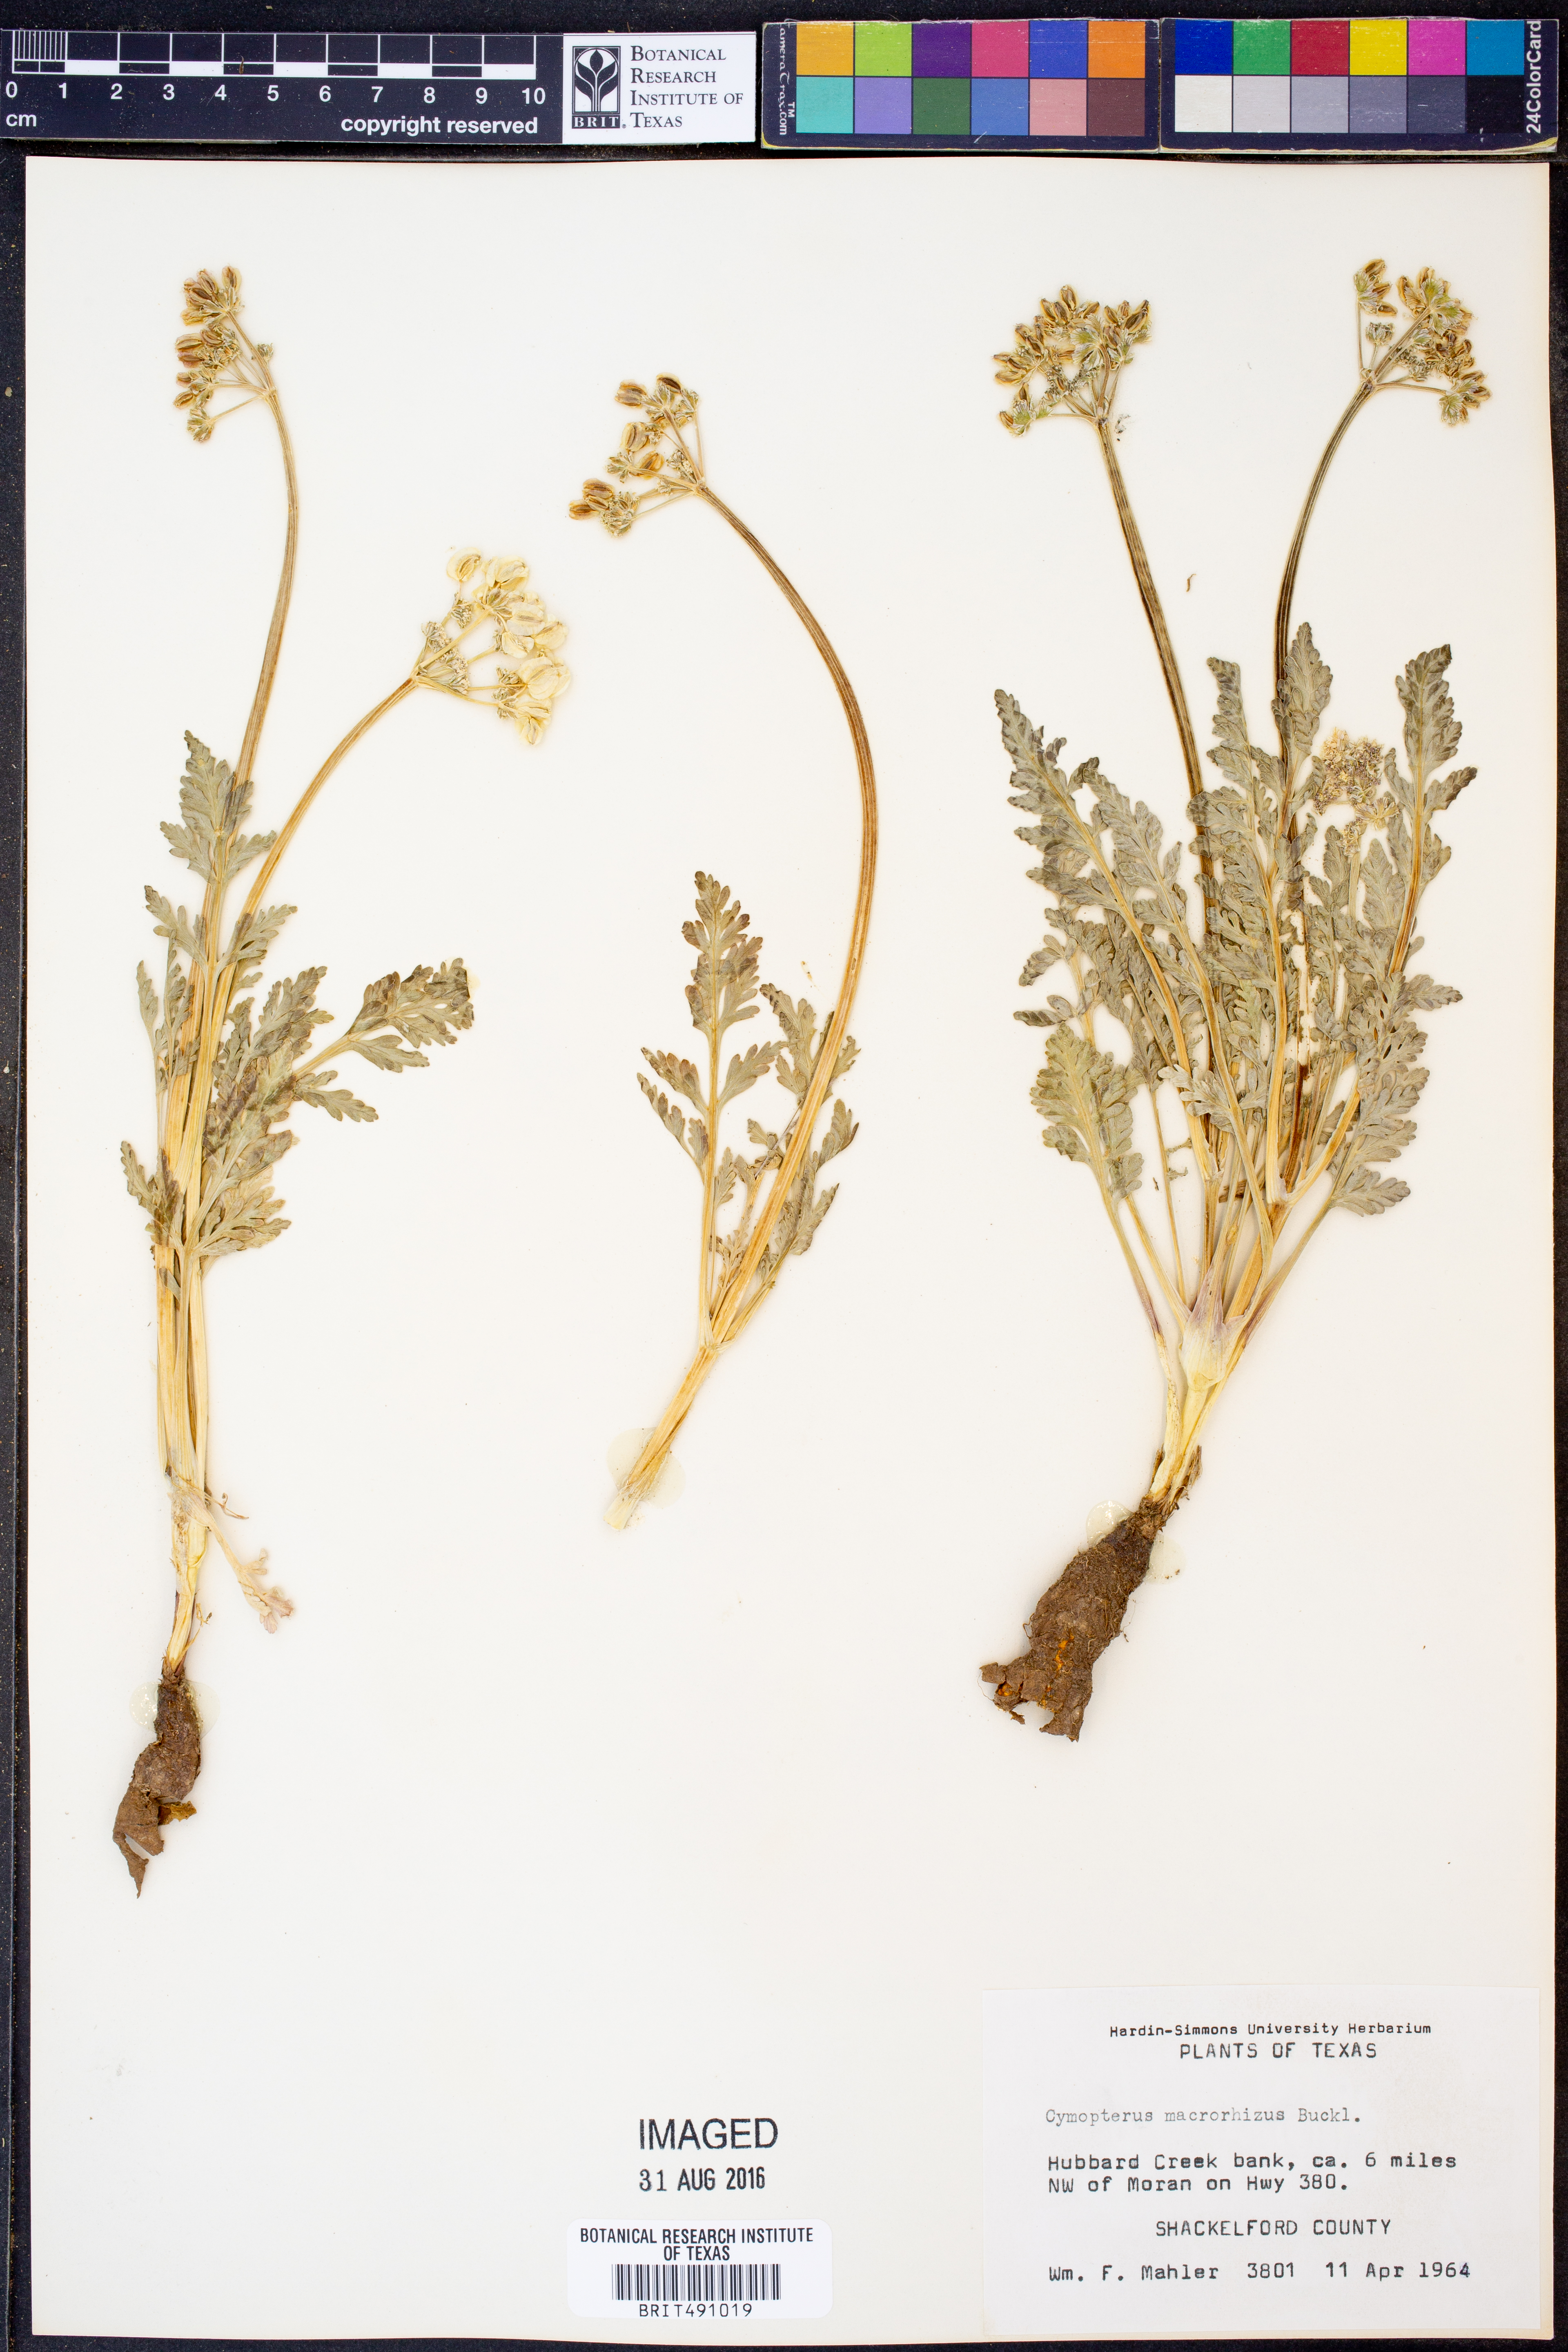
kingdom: Plantae
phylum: Tracheophyta
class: Magnoliopsida
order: Apiales
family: Apiaceae
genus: Vesper
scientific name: Vesper macrorhizus
